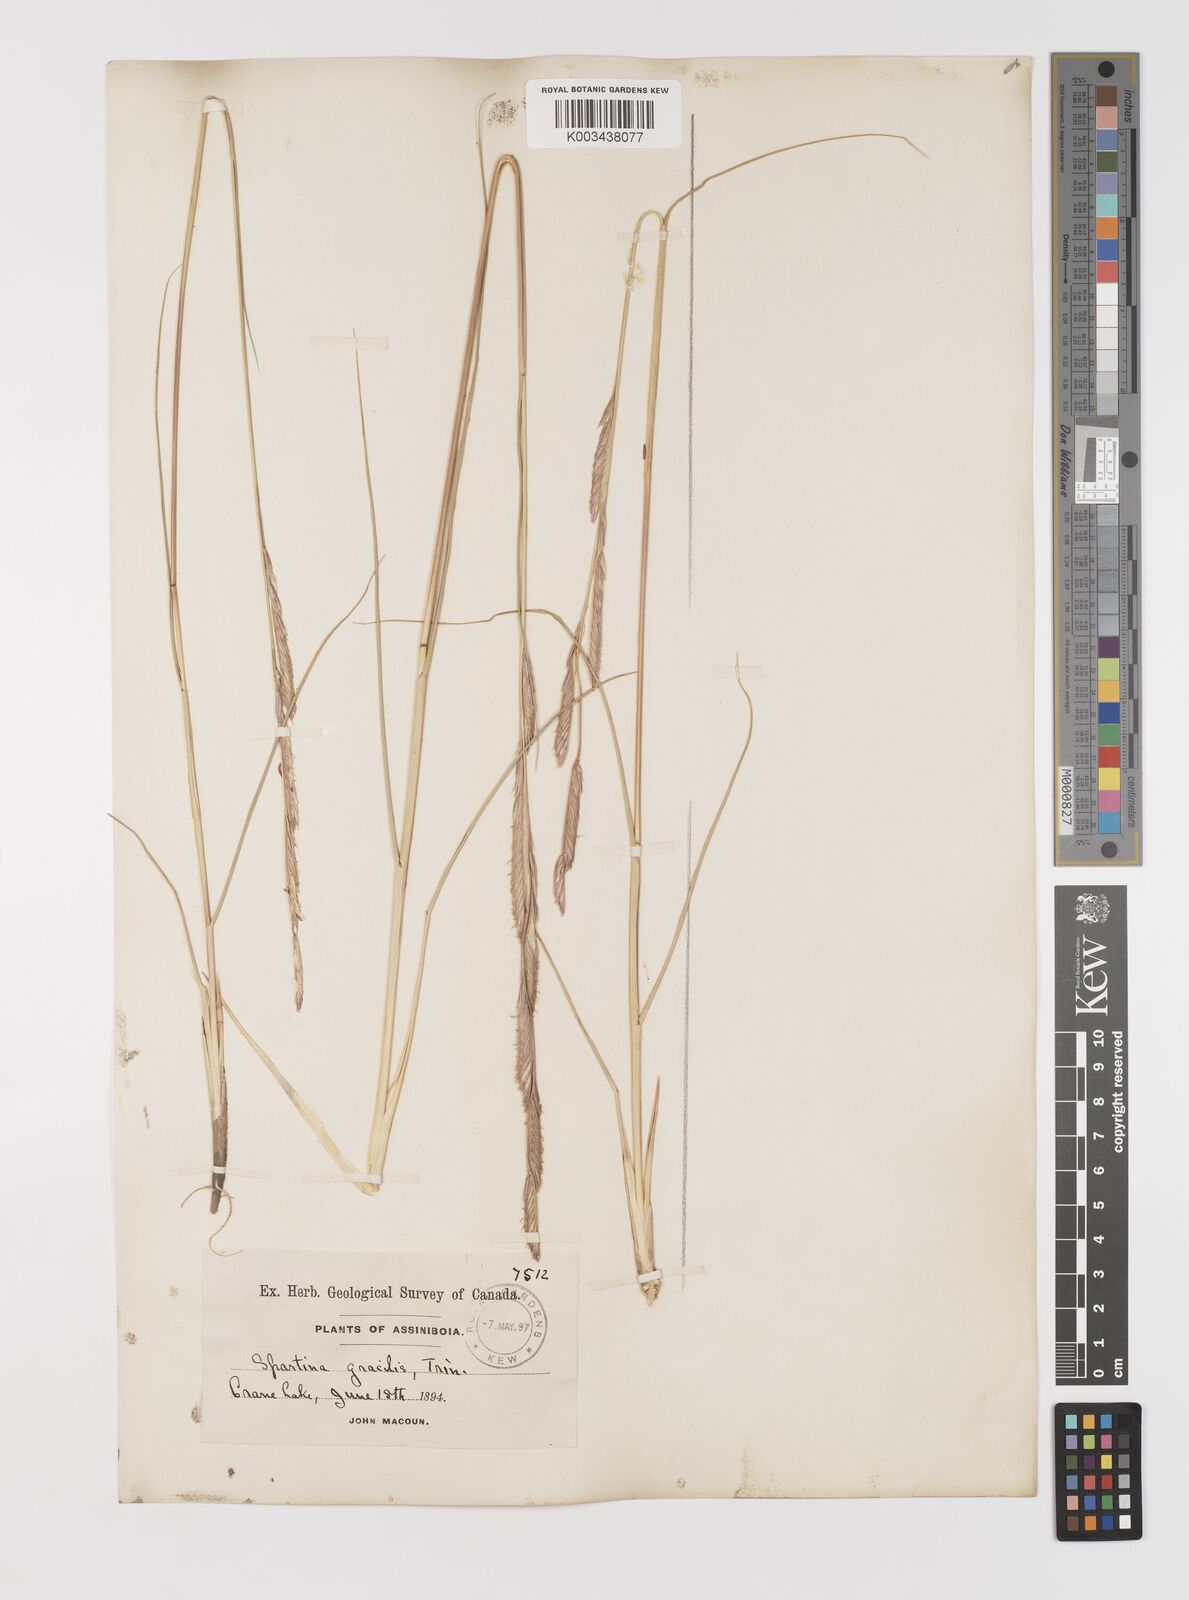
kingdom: Plantae
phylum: Tracheophyta
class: Liliopsida
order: Poales
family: Poaceae
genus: Sporobolus
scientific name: Sporobolus hookerianus
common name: Alkali cordgrass
